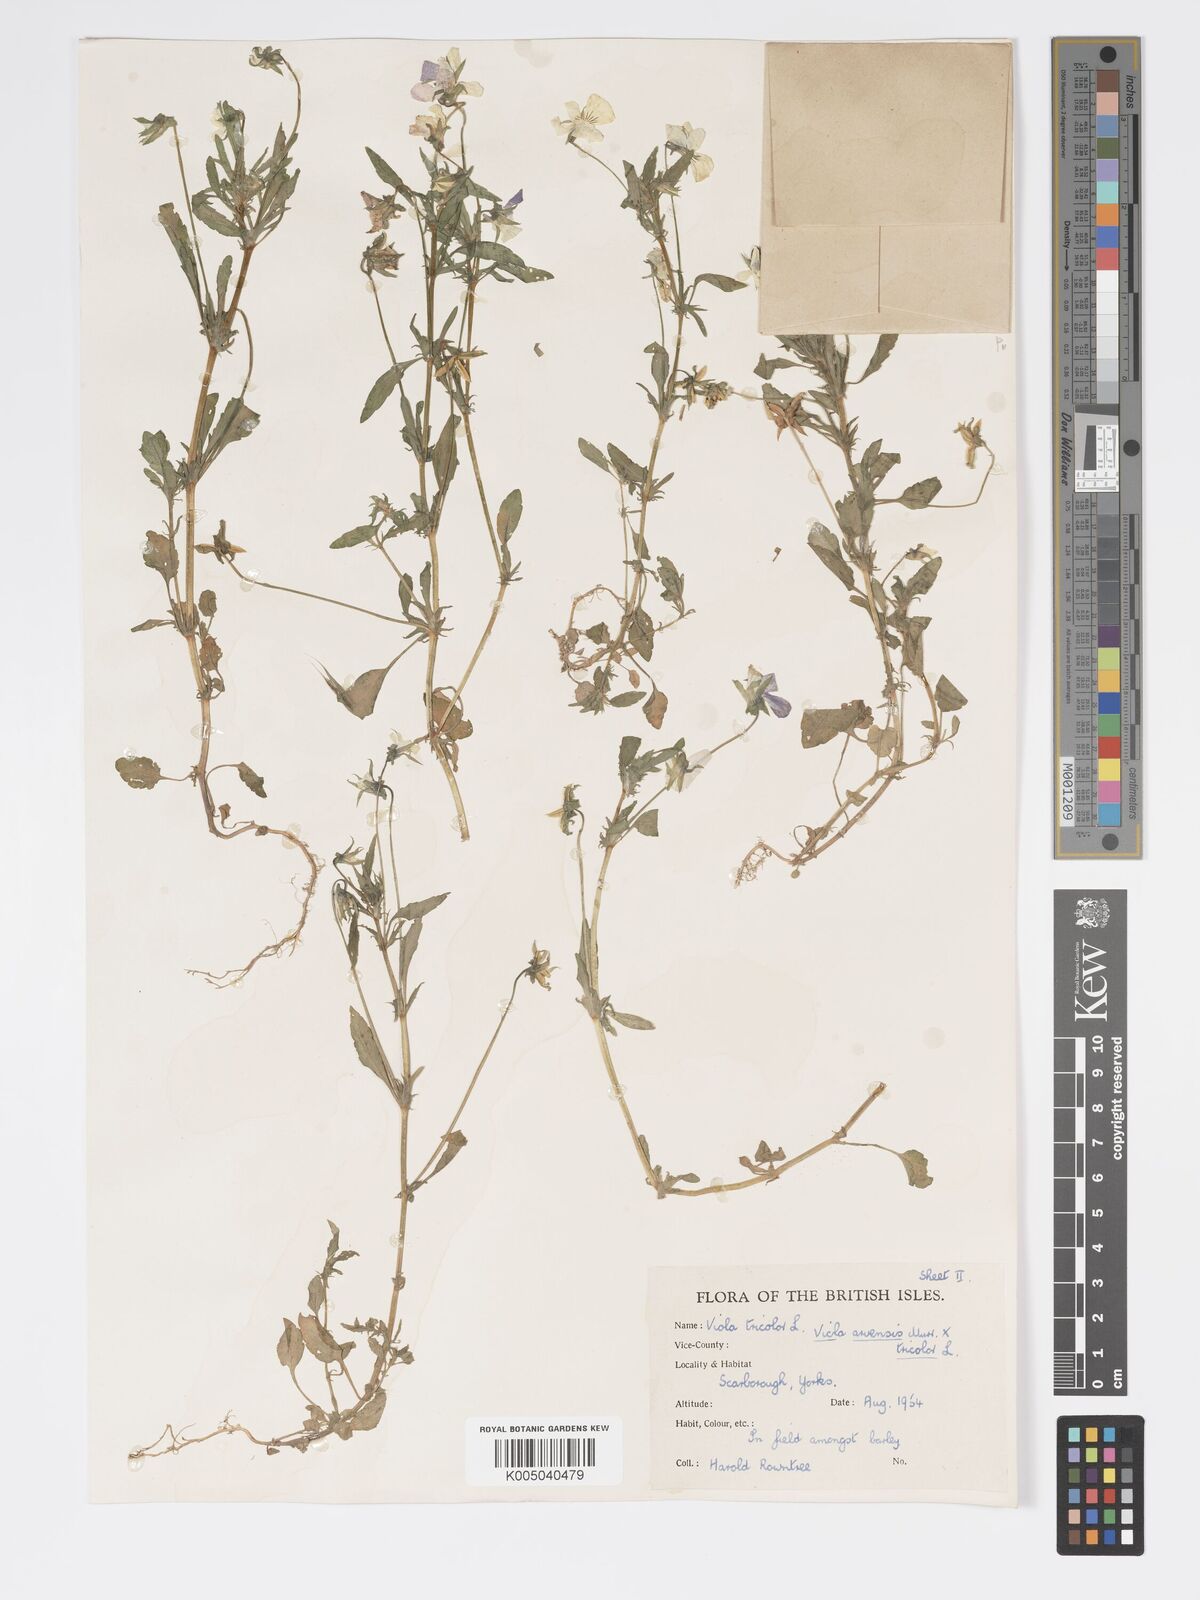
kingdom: Plantae
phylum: Tracheophyta
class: Magnoliopsida
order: Malpighiales
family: Violaceae
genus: Viola
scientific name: Viola arvensis
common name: Field pansy
